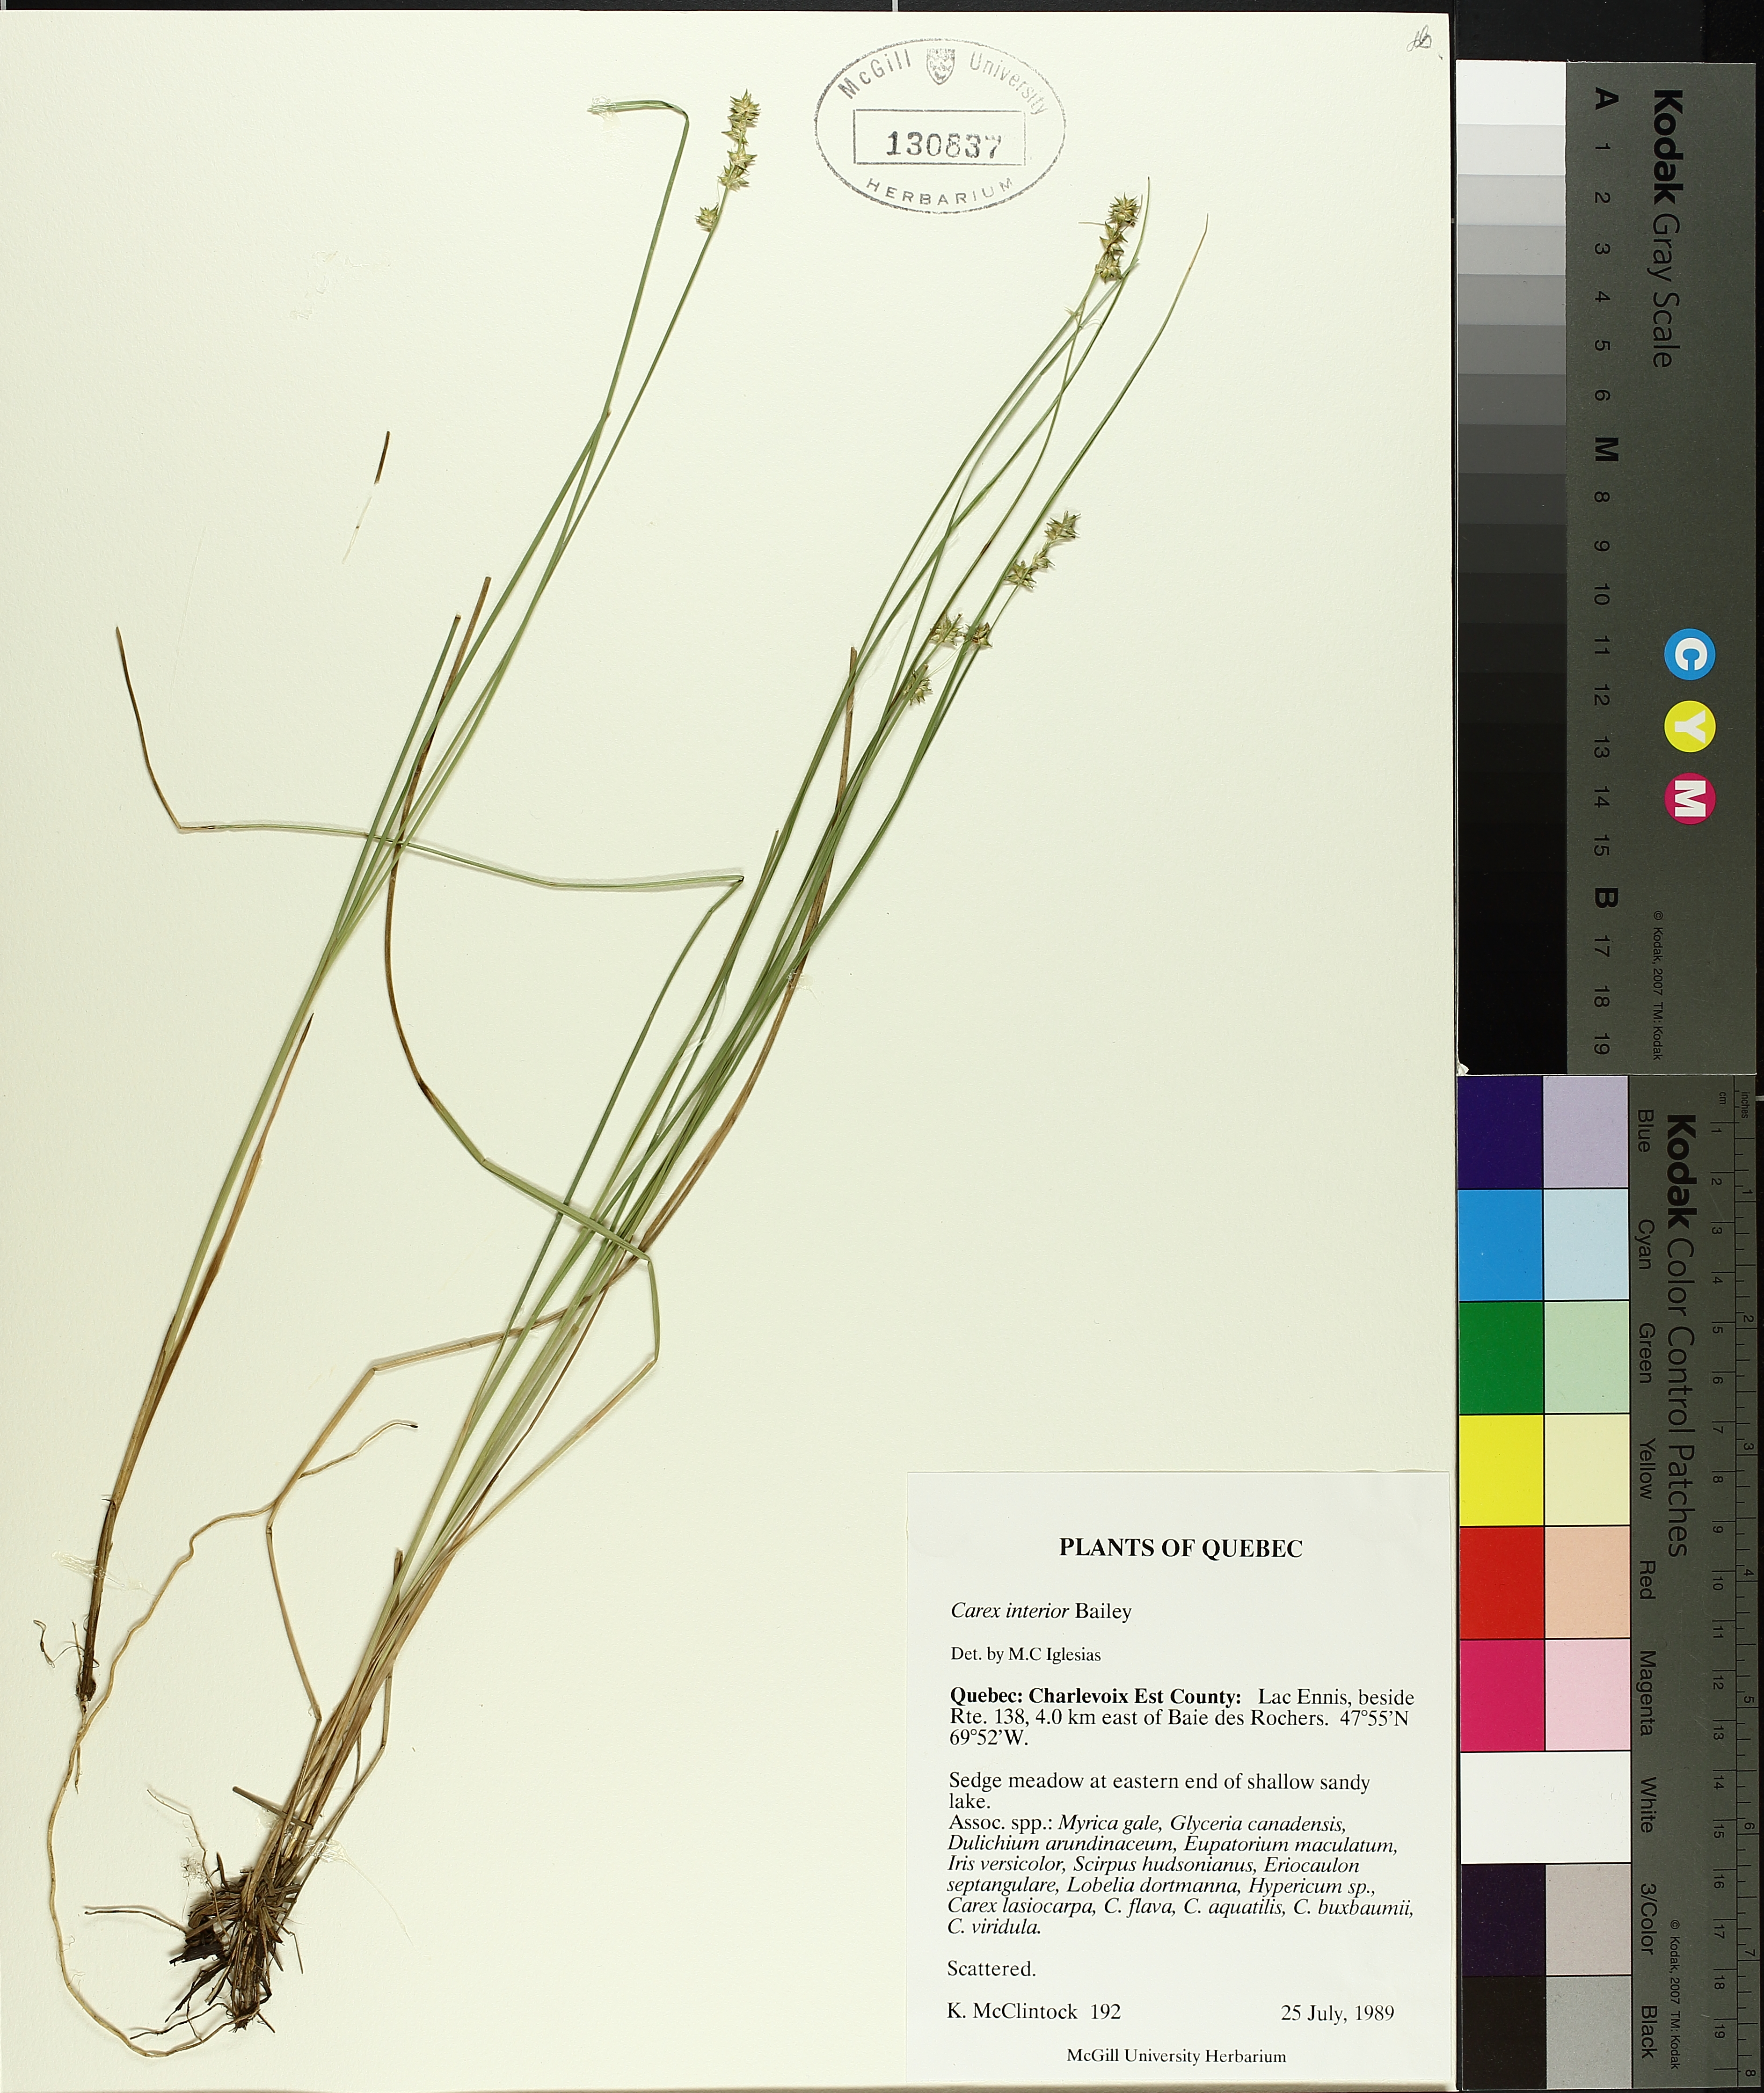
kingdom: Plantae
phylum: Tracheophyta
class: Liliopsida
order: Poales
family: Cyperaceae
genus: Carex
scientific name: Carex interior
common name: Inland sedge
